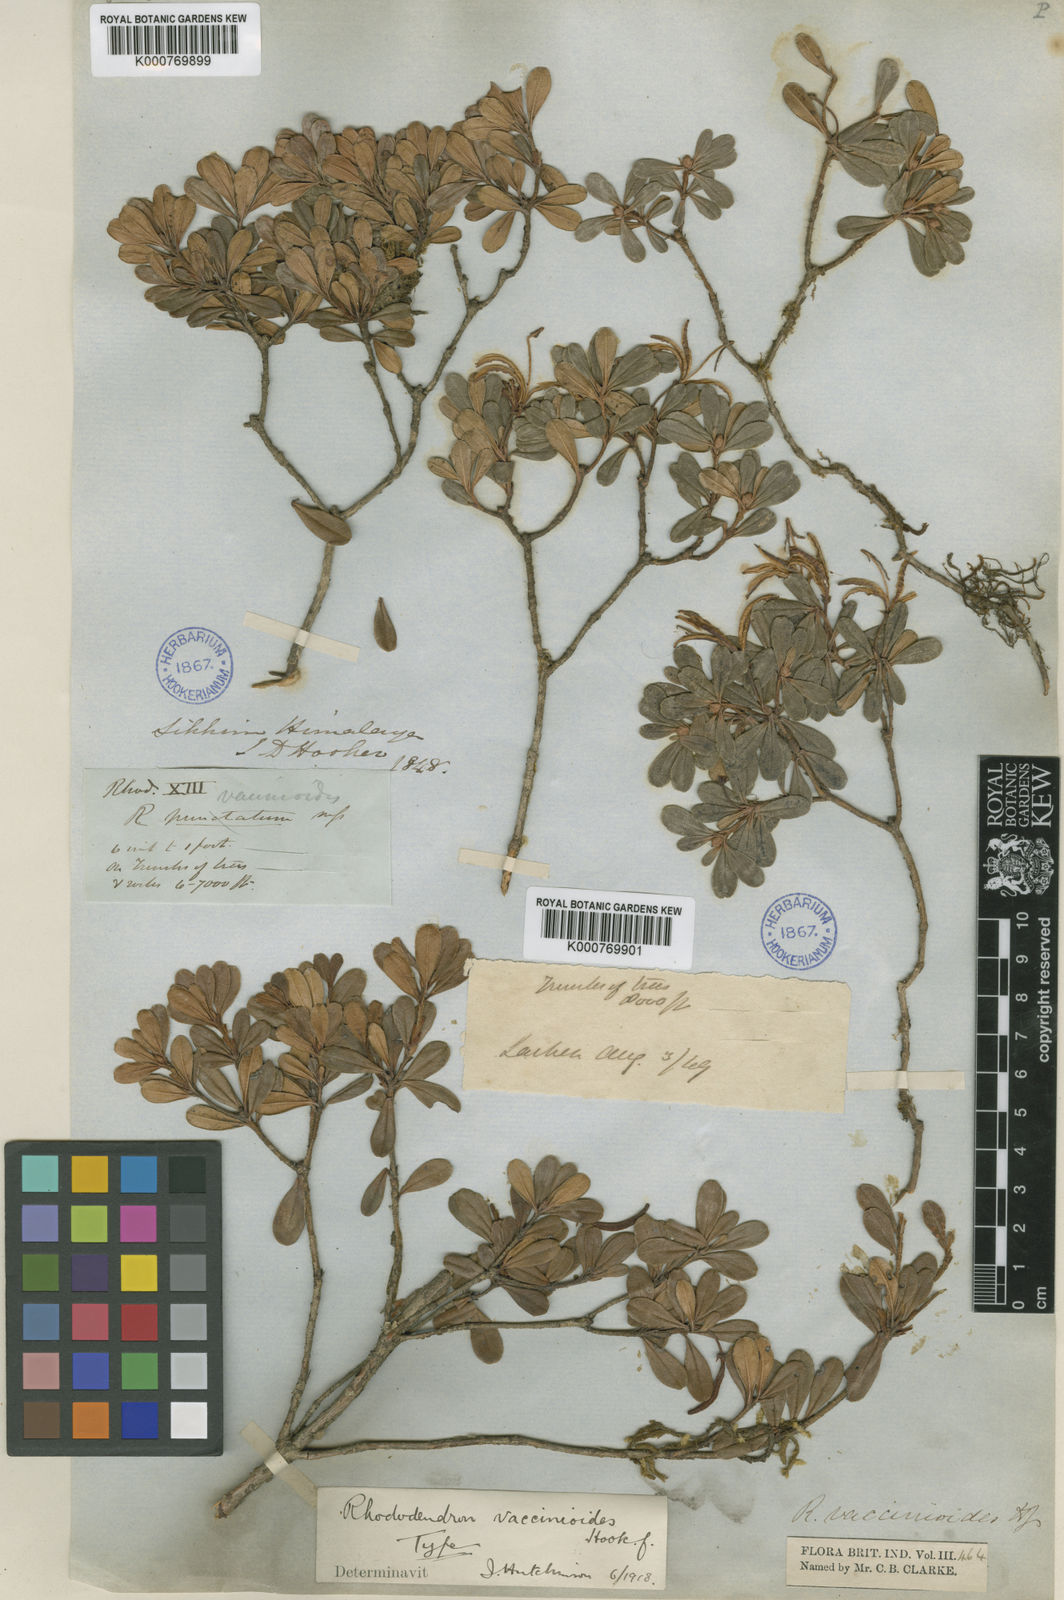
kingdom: Plantae
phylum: Tracheophyta
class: Magnoliopsida
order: Ericales
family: Ericaceae
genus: Rhododendron
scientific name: Rhododendron
